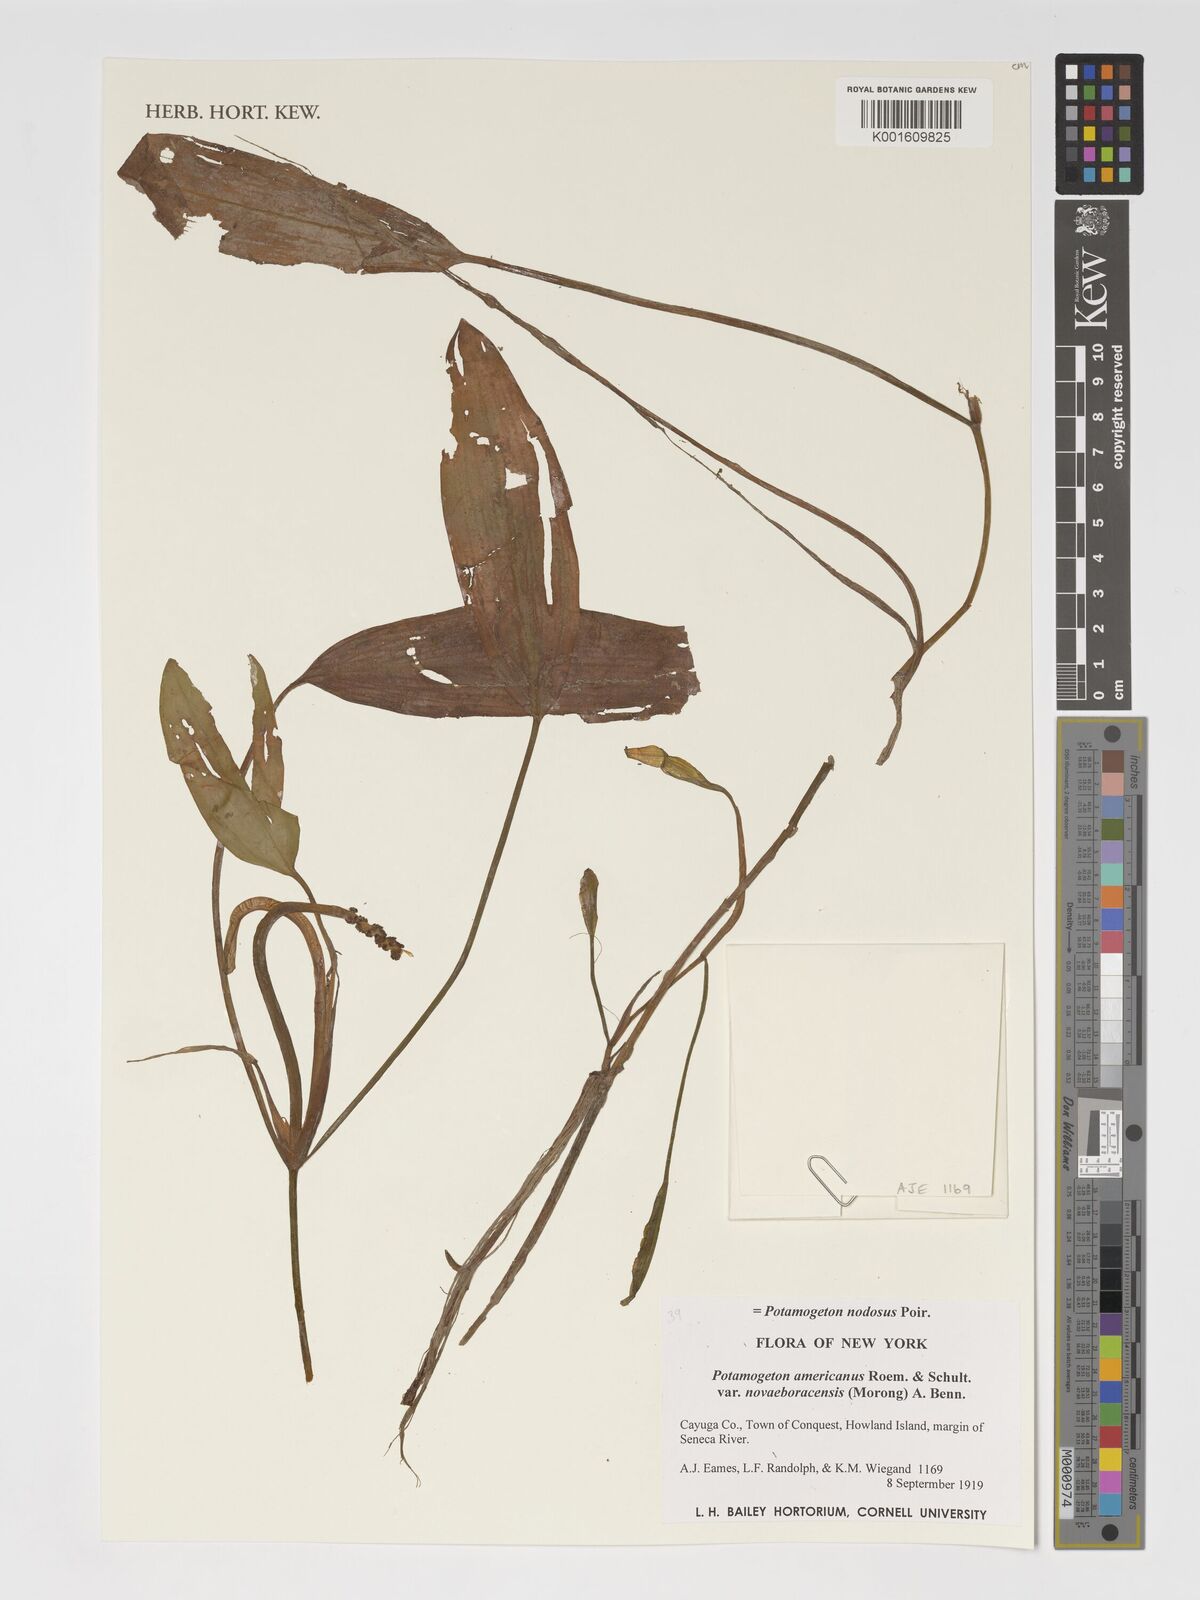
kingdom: Plantae
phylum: Tracheophyta
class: Liliopsida
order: Alismatales
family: Potamogetonaceae
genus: Potamogeton
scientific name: Potamogeton nodosus
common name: Loddon pondweed
